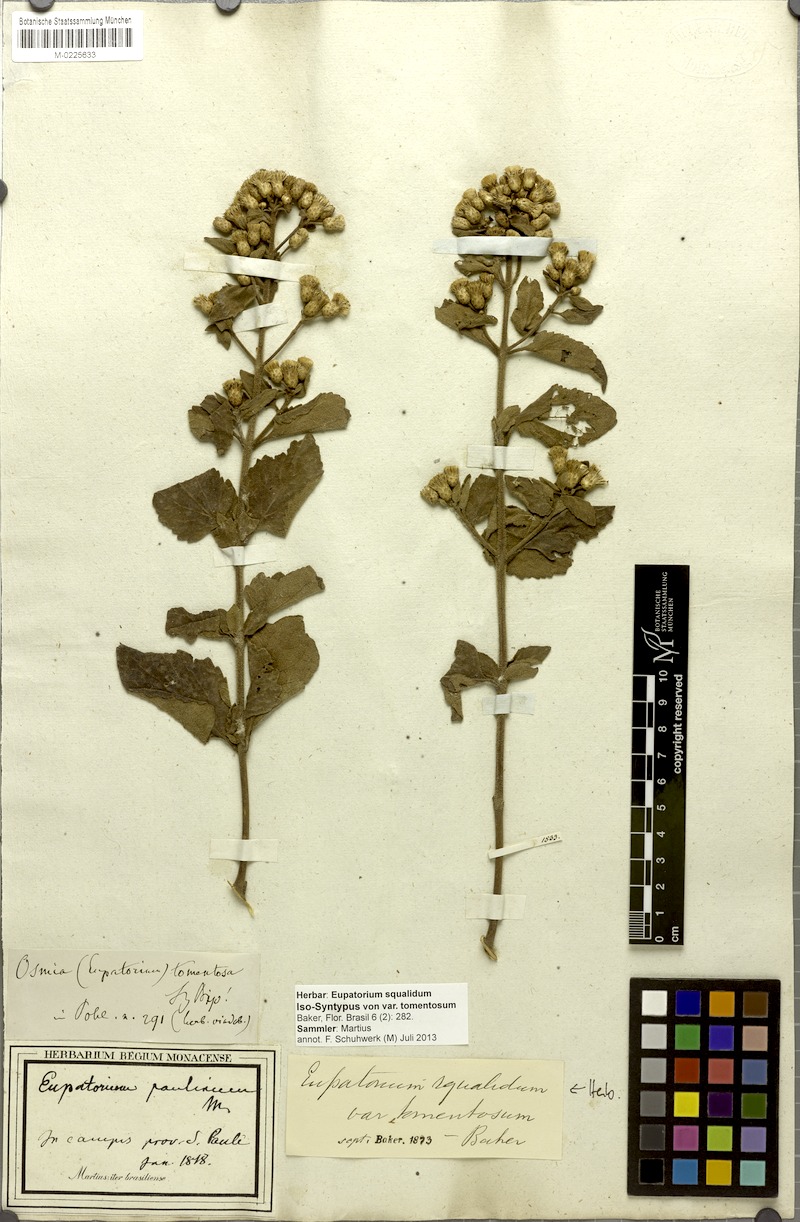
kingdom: Plantae
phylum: Tracheophyta
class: Magnoliopsida
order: Asterales
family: Asteraceae
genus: Chromolaena
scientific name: Chromolaena squalida
